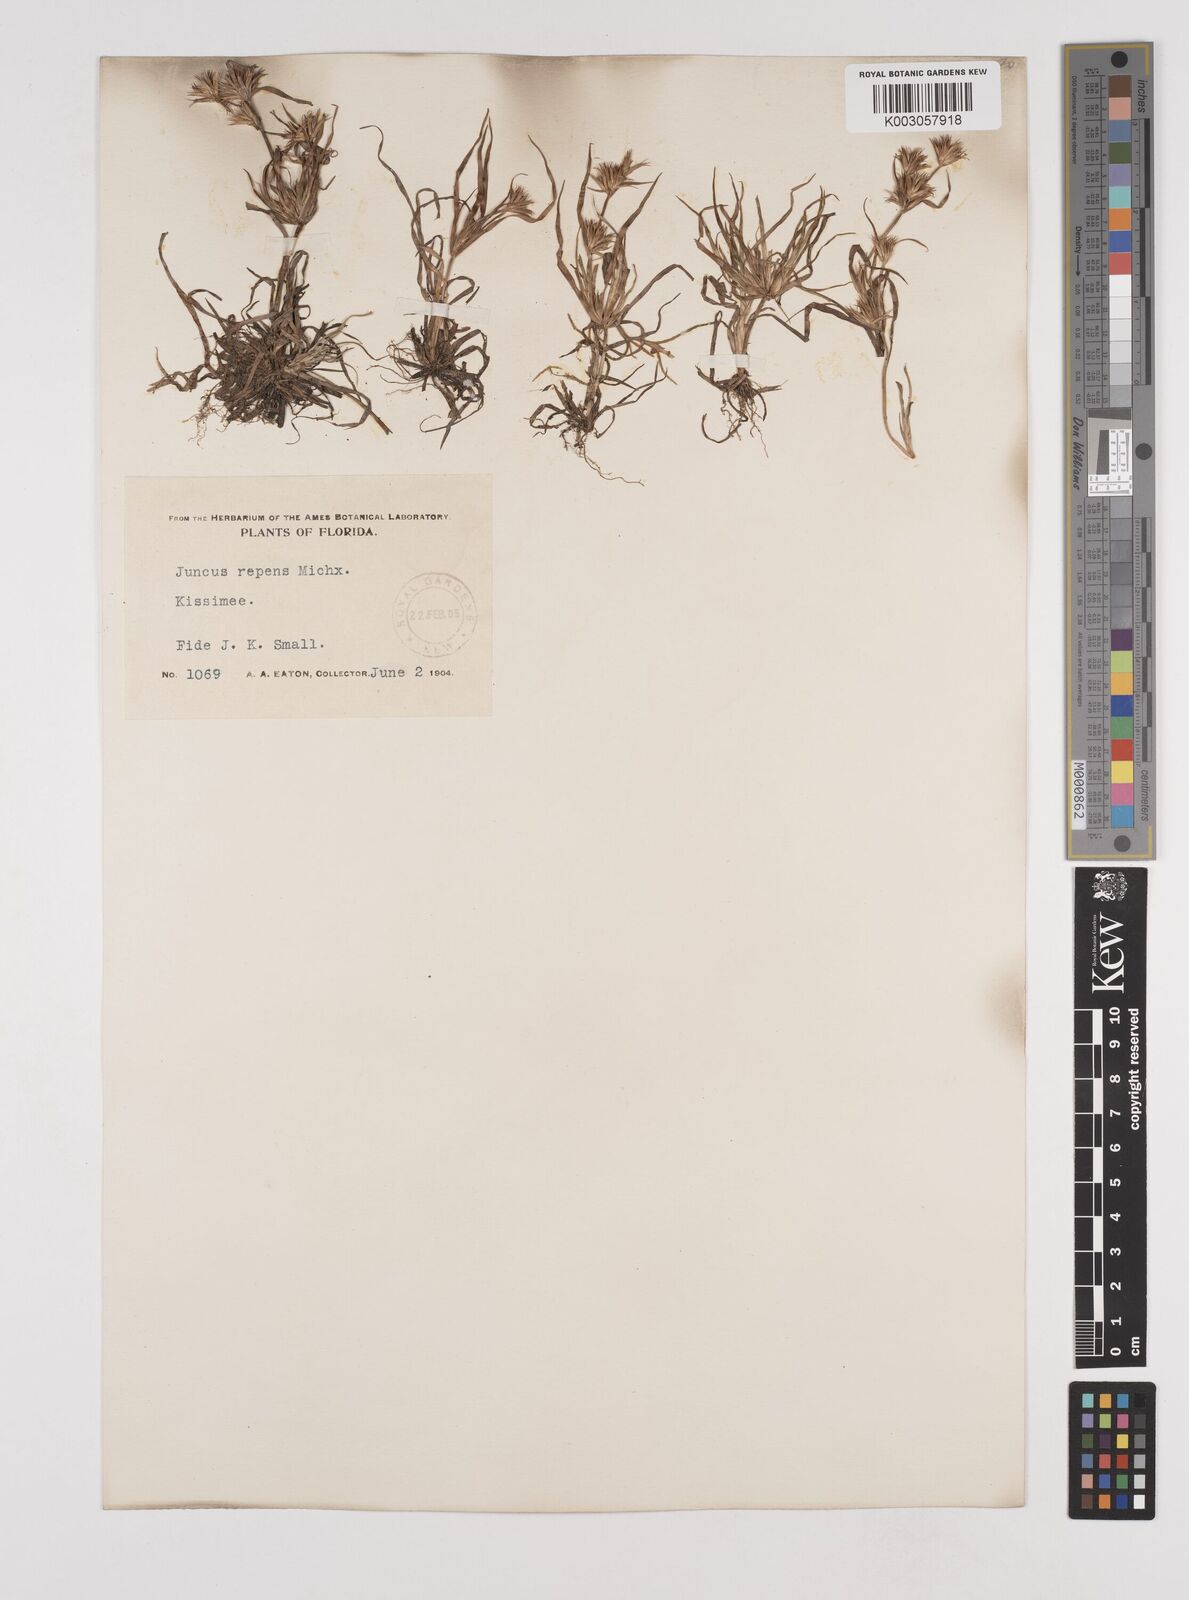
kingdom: Plantae
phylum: Tracheophyta
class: Liliopsida
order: Poales
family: Juncaceae
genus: Juncus
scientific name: Juncus repens
